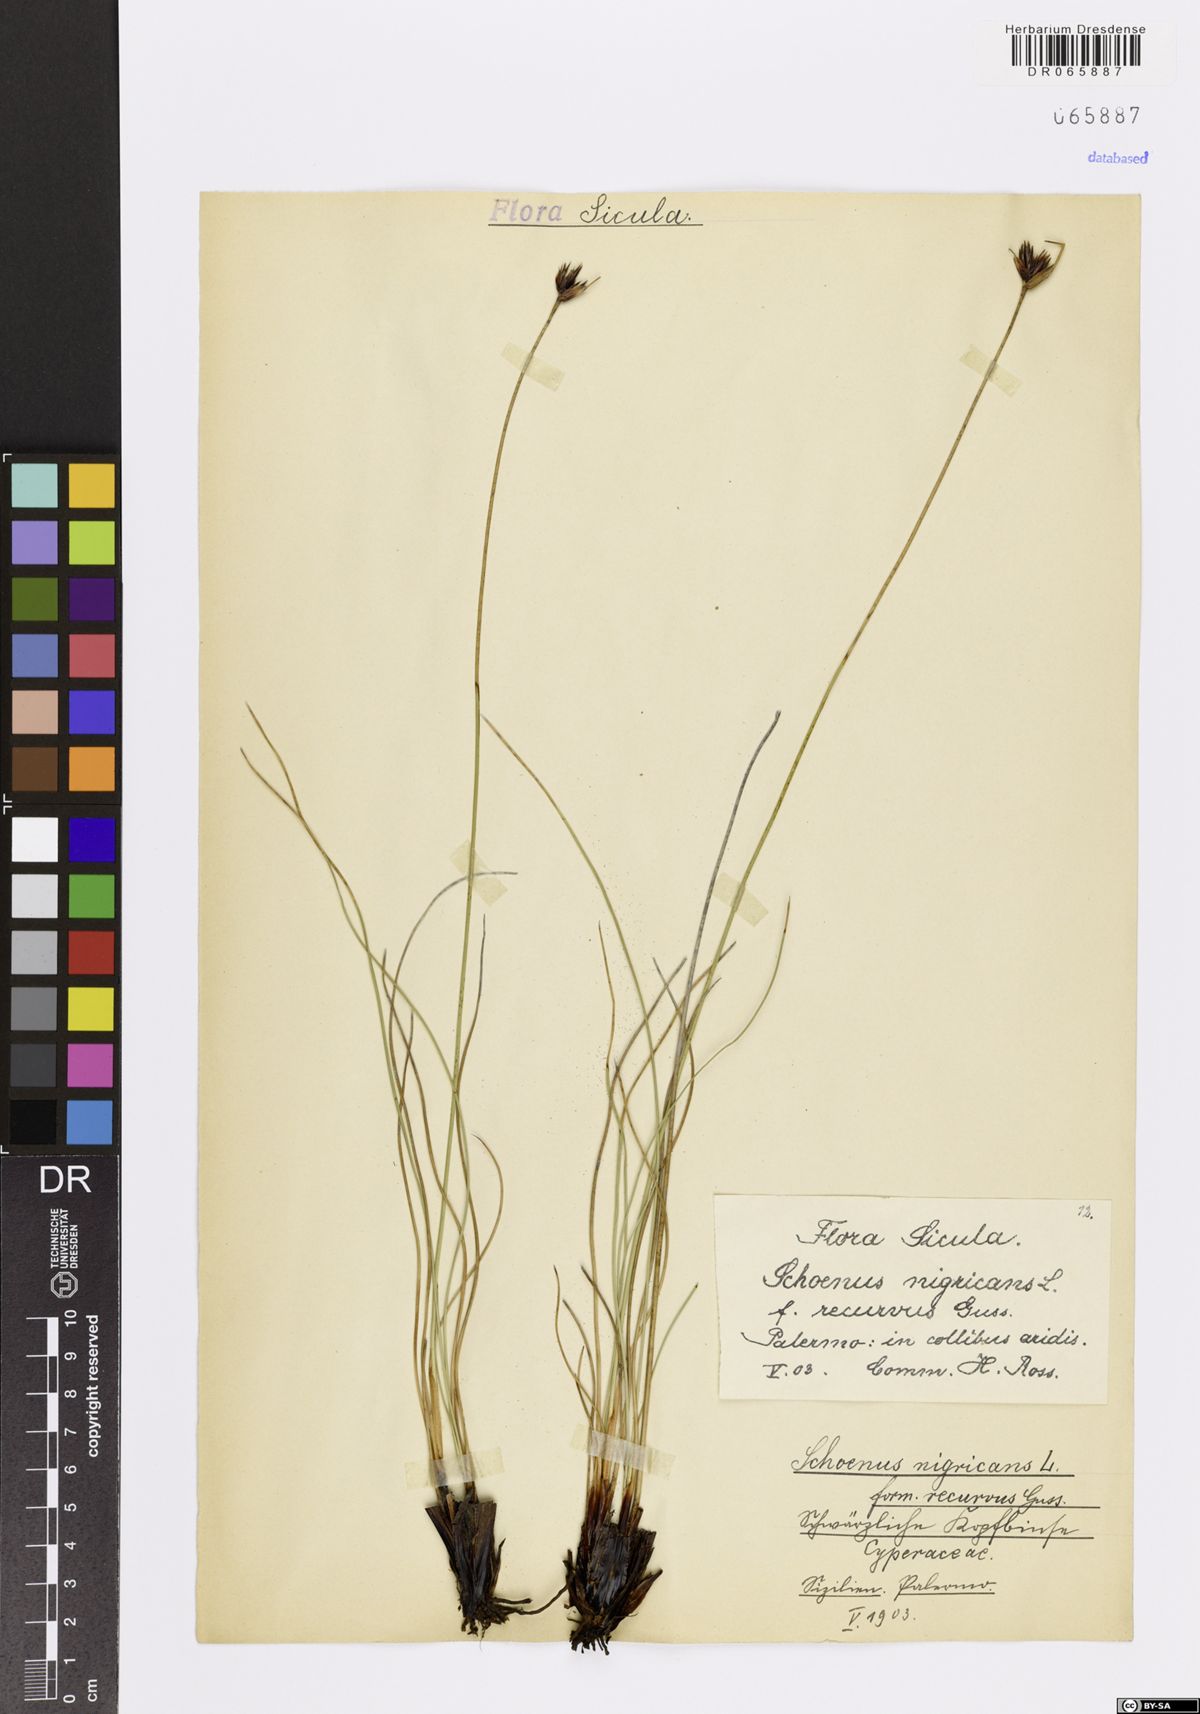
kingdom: Plantae
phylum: Tracheophyta
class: Liliopsida
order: Poales
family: Cyperaceae
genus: Schoenus
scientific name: Schoenus nigricans
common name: Black bog-rush
